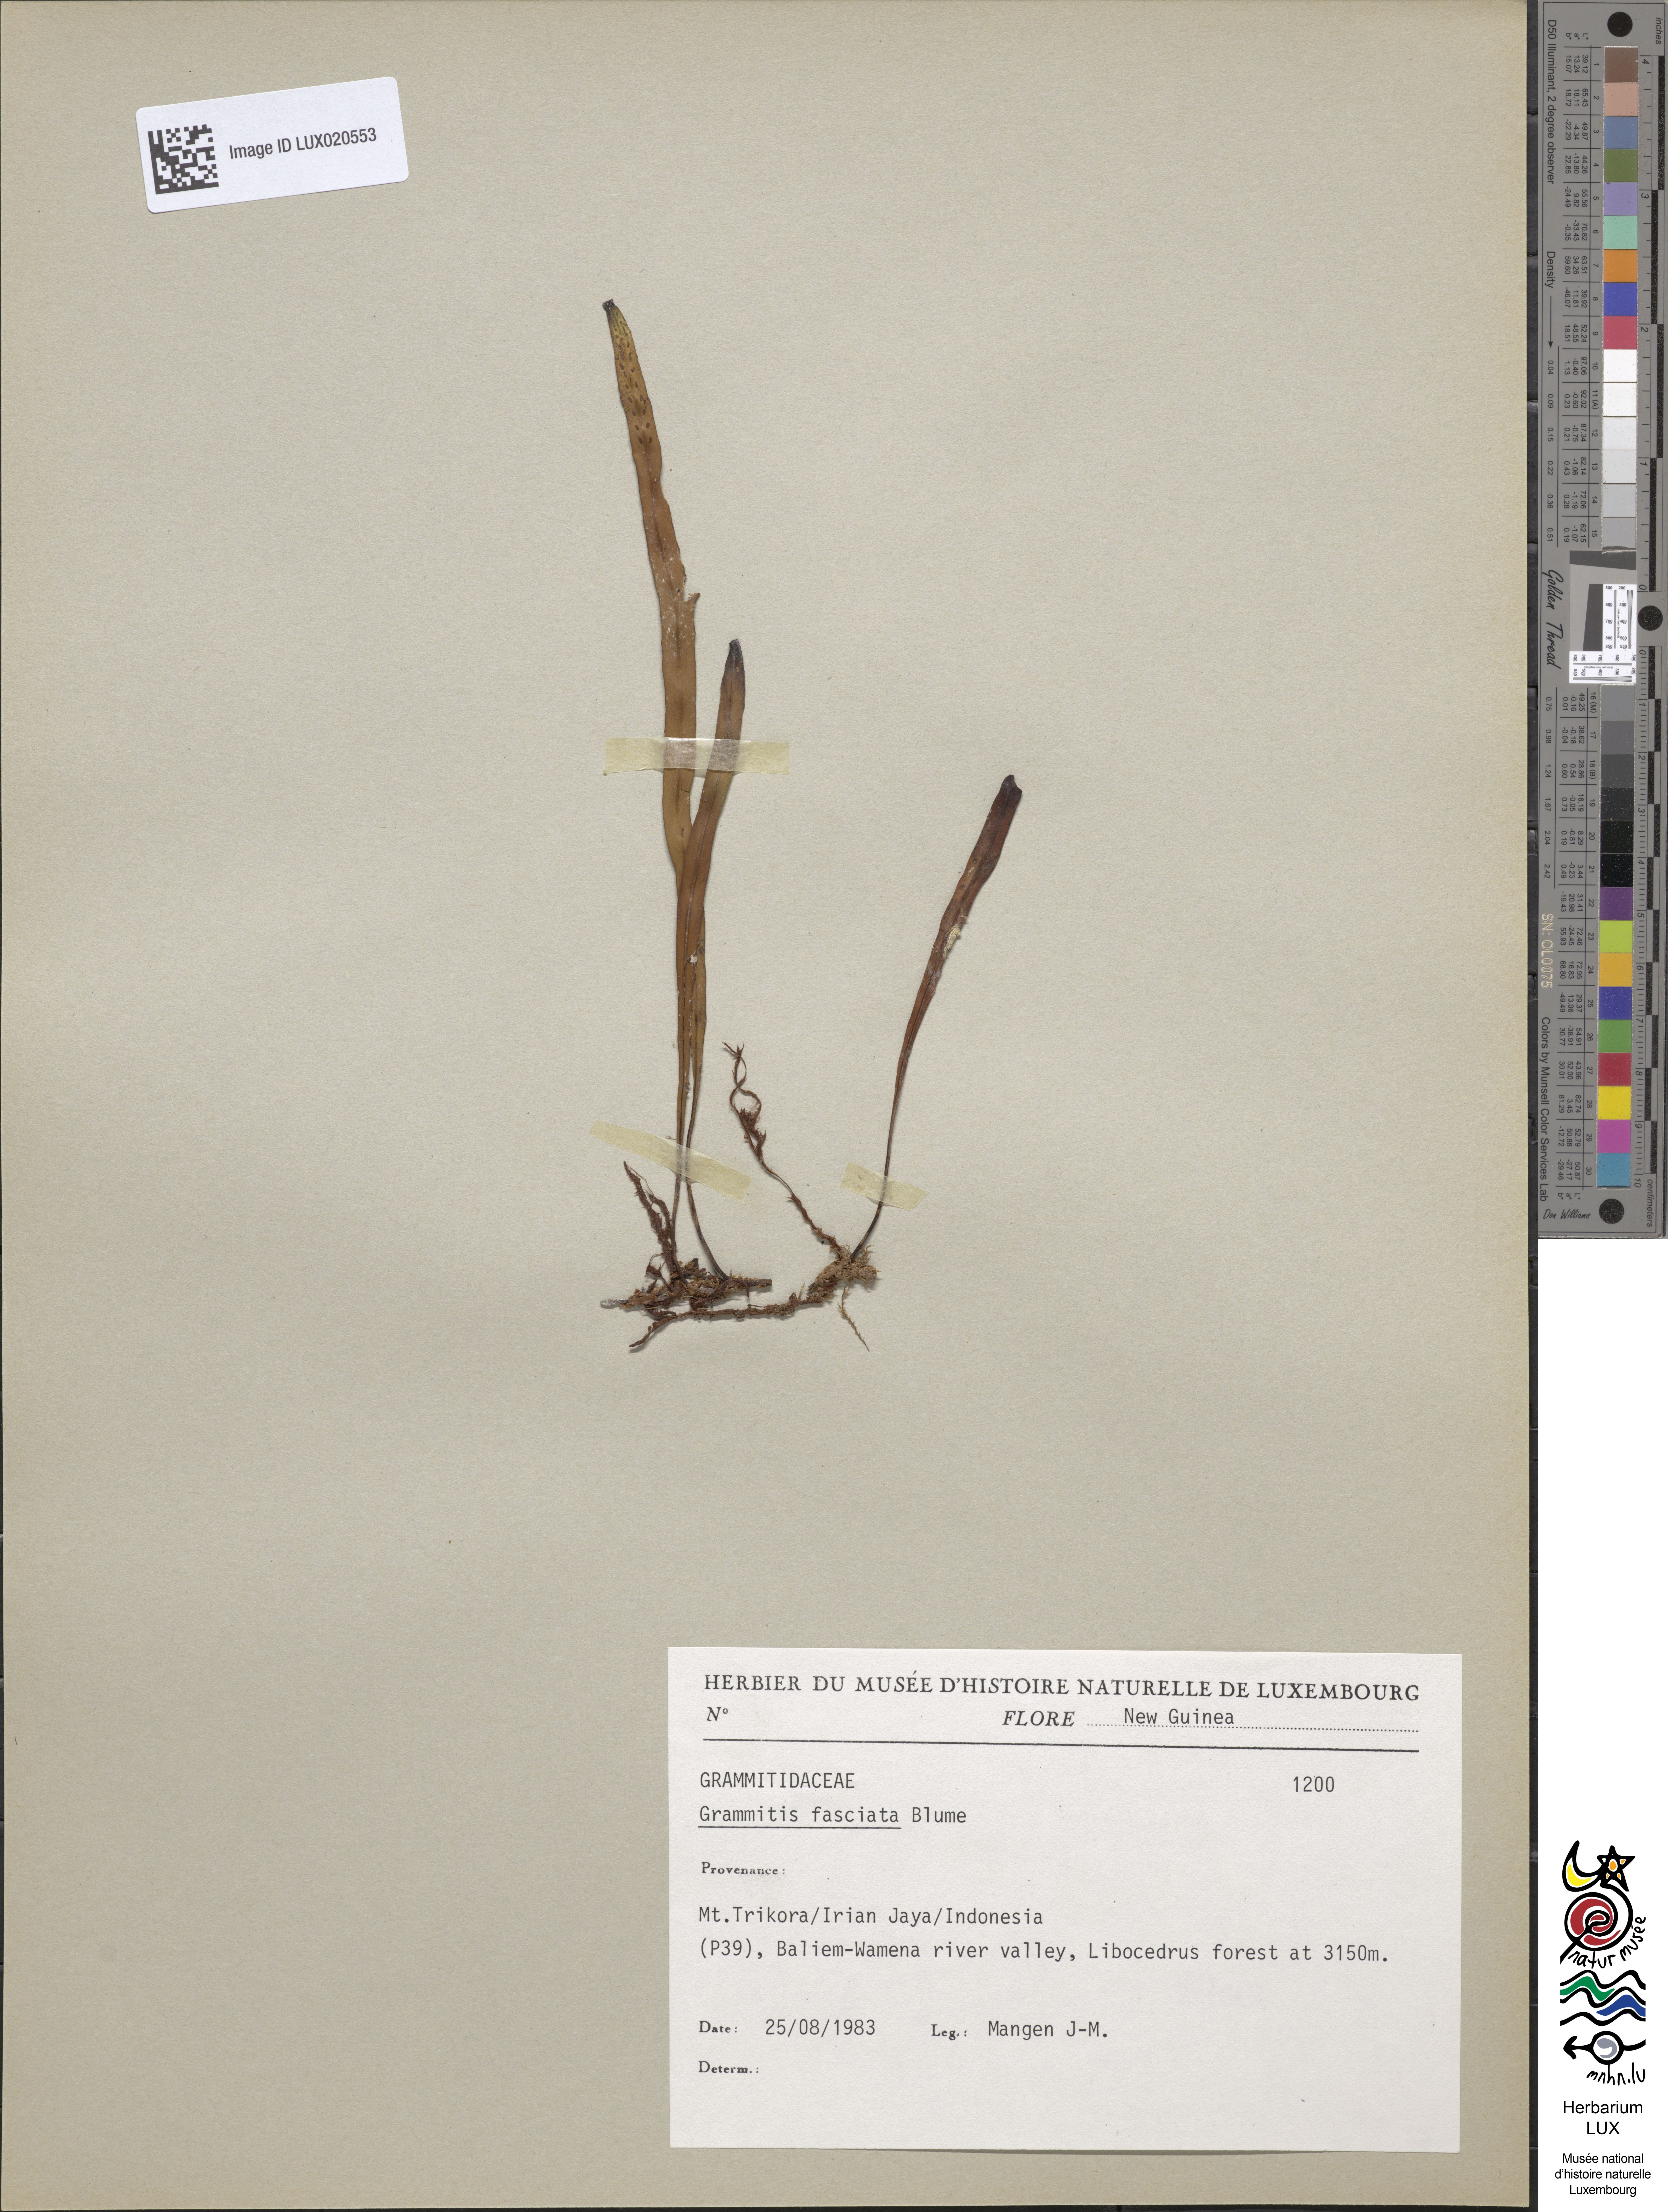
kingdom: Plantae
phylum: Tracheophyta
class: Polypodiopsida
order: Polypodiales
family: Polypodiaceae
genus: Oreogrammitis
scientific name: Oreogrammitis fasciata
